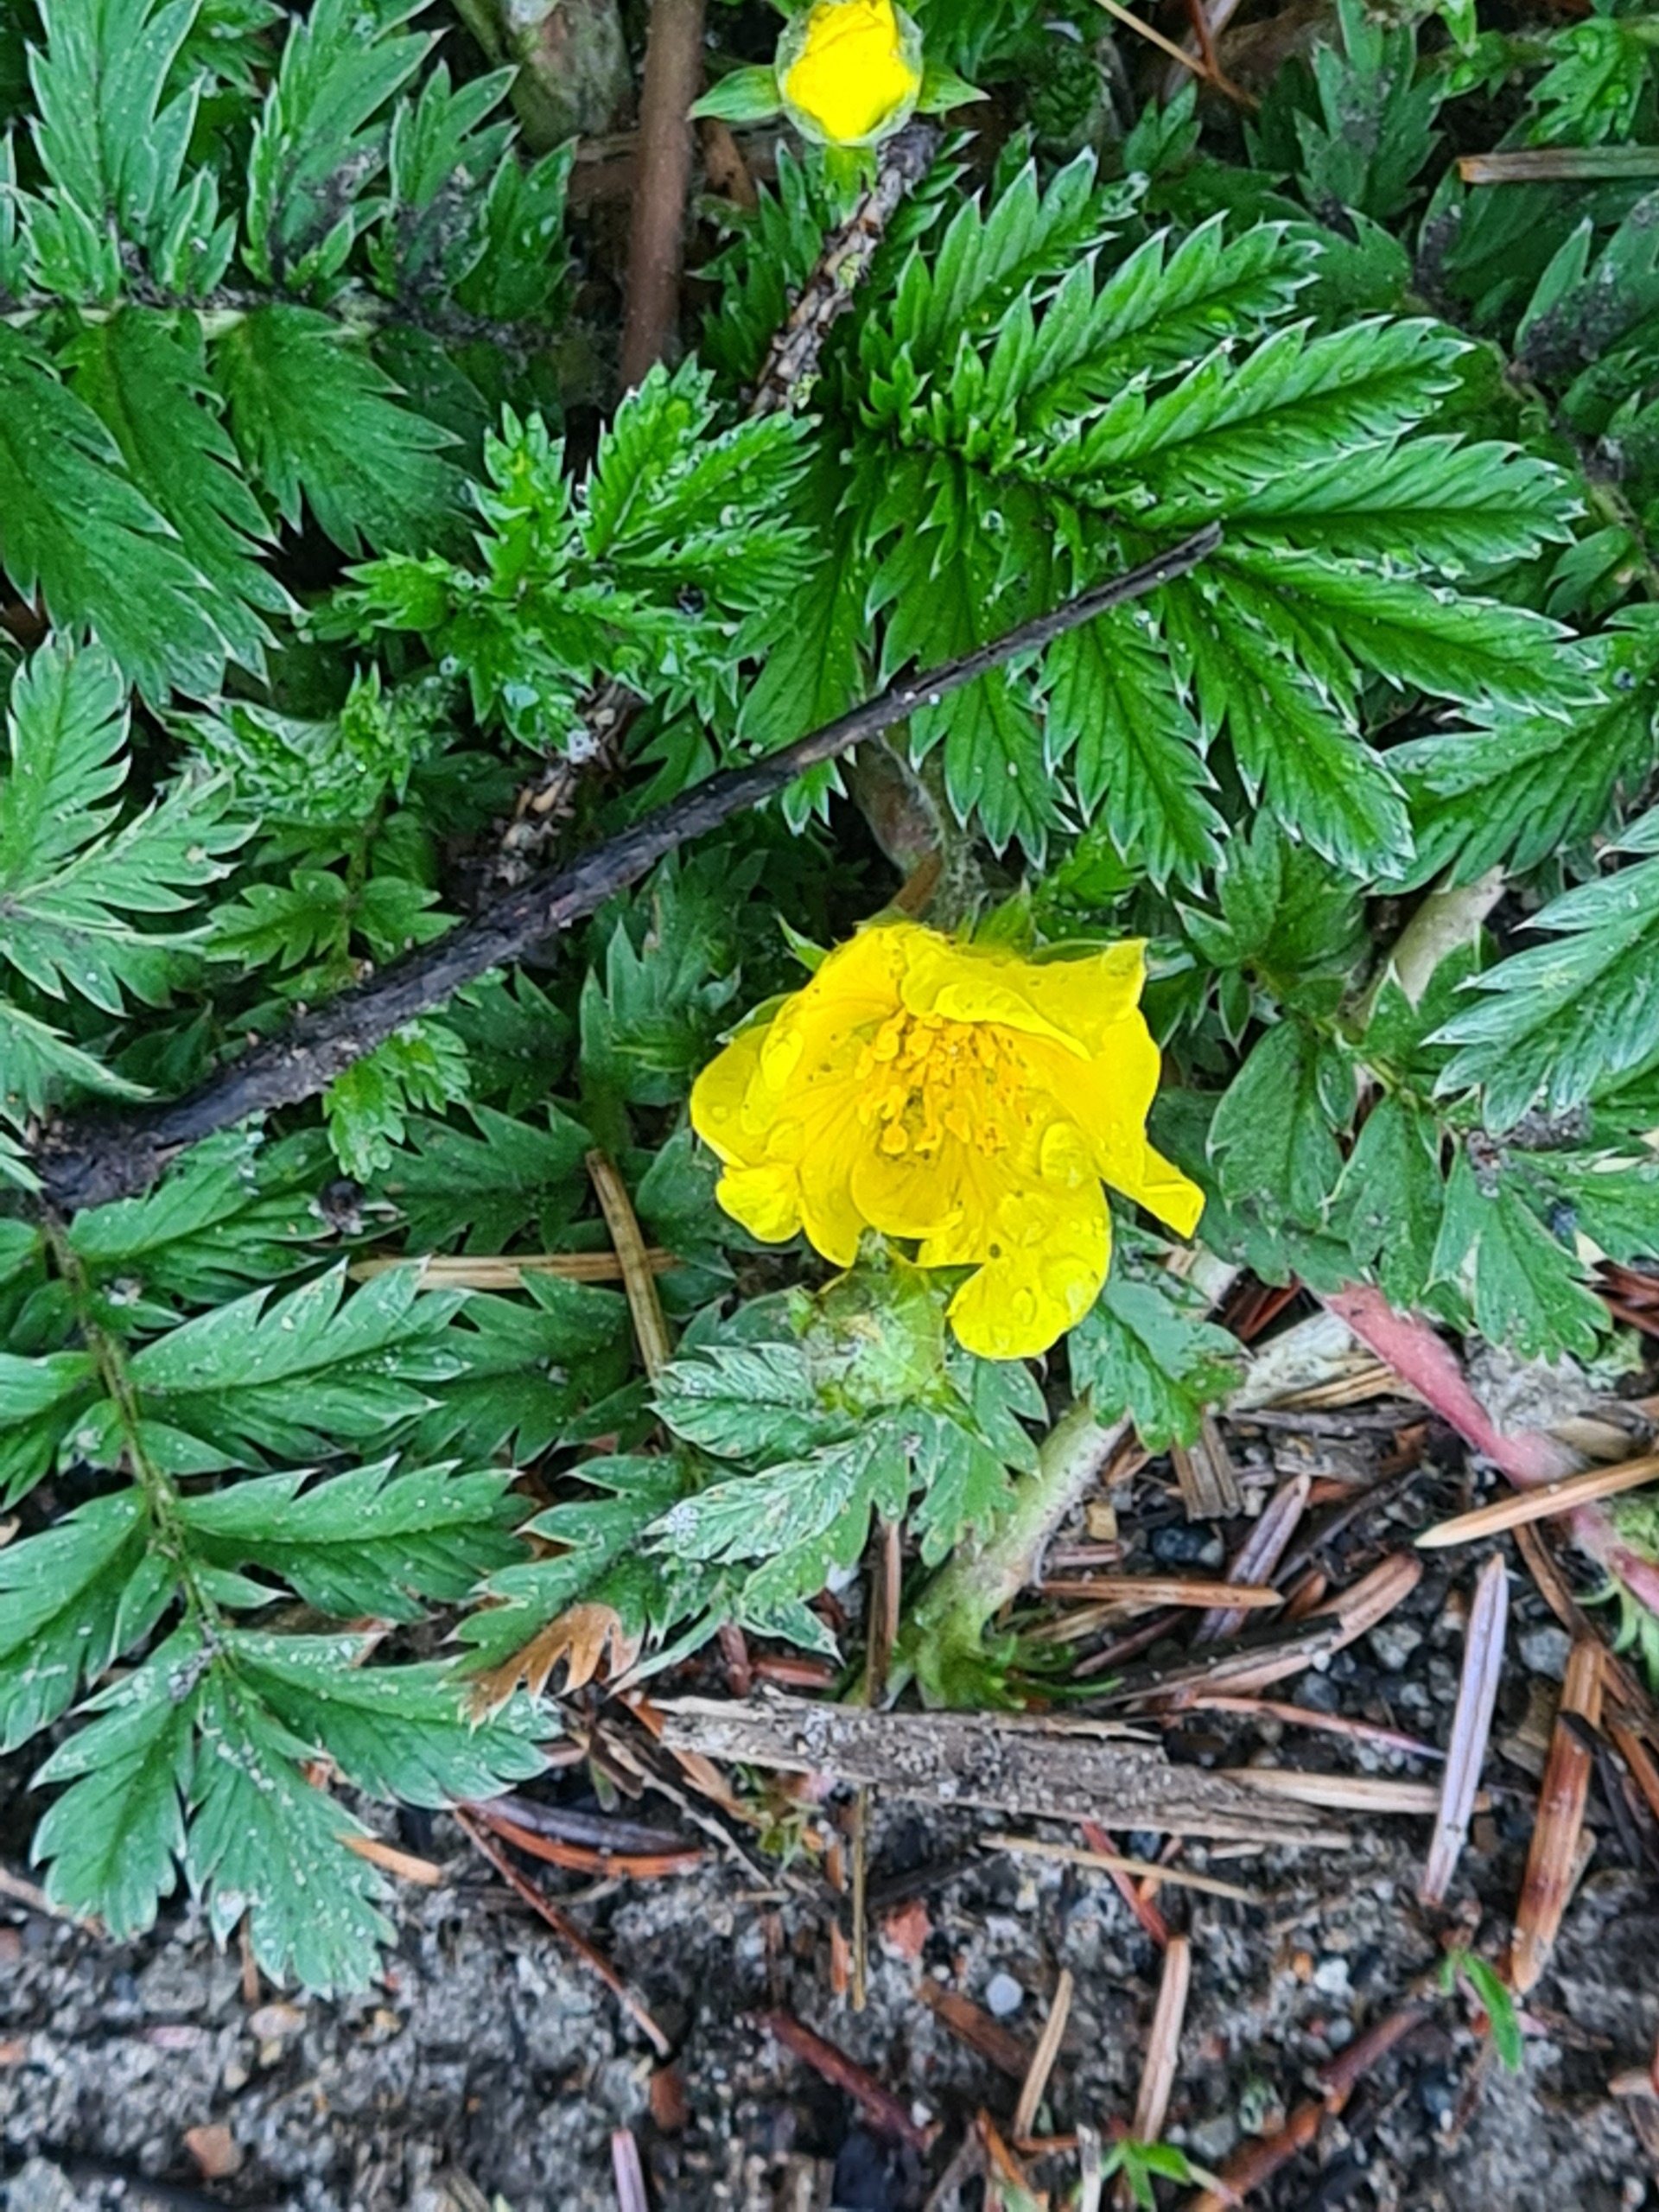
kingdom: Plantae
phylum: Tracheophyta
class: Magnoliopsida
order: Rosales
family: Rosaceae
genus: Argentina
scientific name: Argentina anserina
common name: Gåsepotentil
